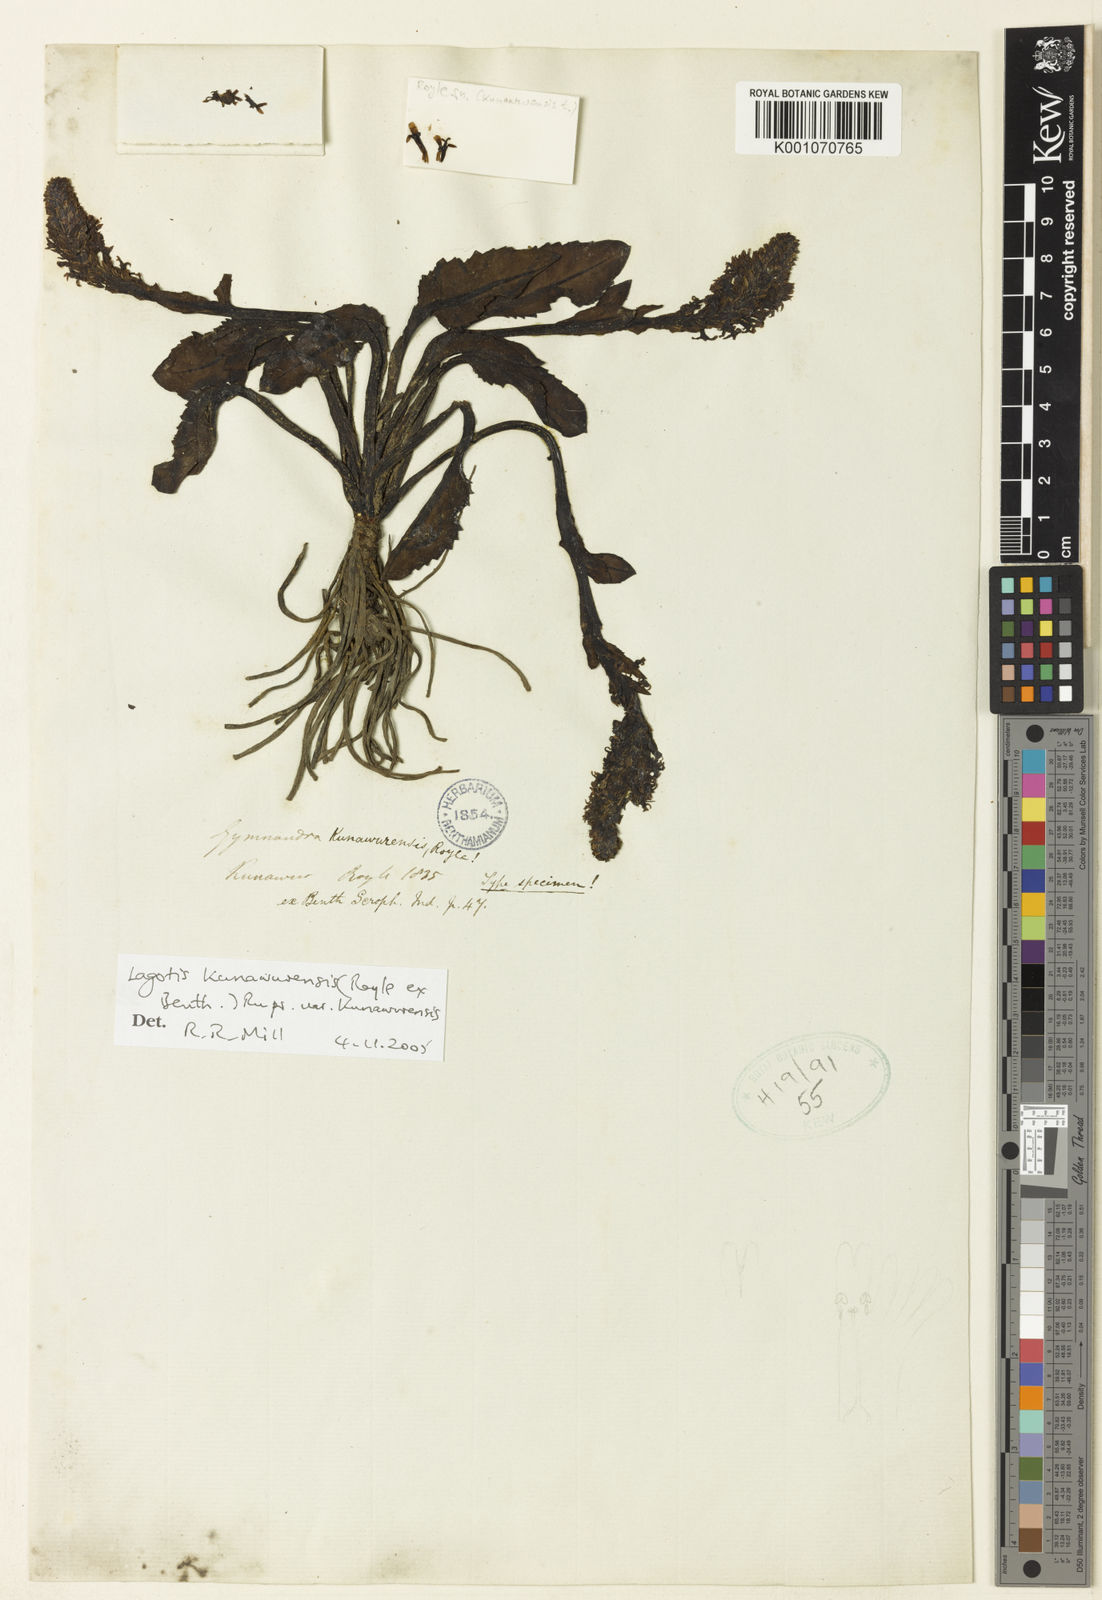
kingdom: Plantae
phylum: Tracheophyta
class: Magnoliopsida
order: Lamiales
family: Plantaginaceae
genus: Lagotis
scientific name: Lagotis kunawurensis
